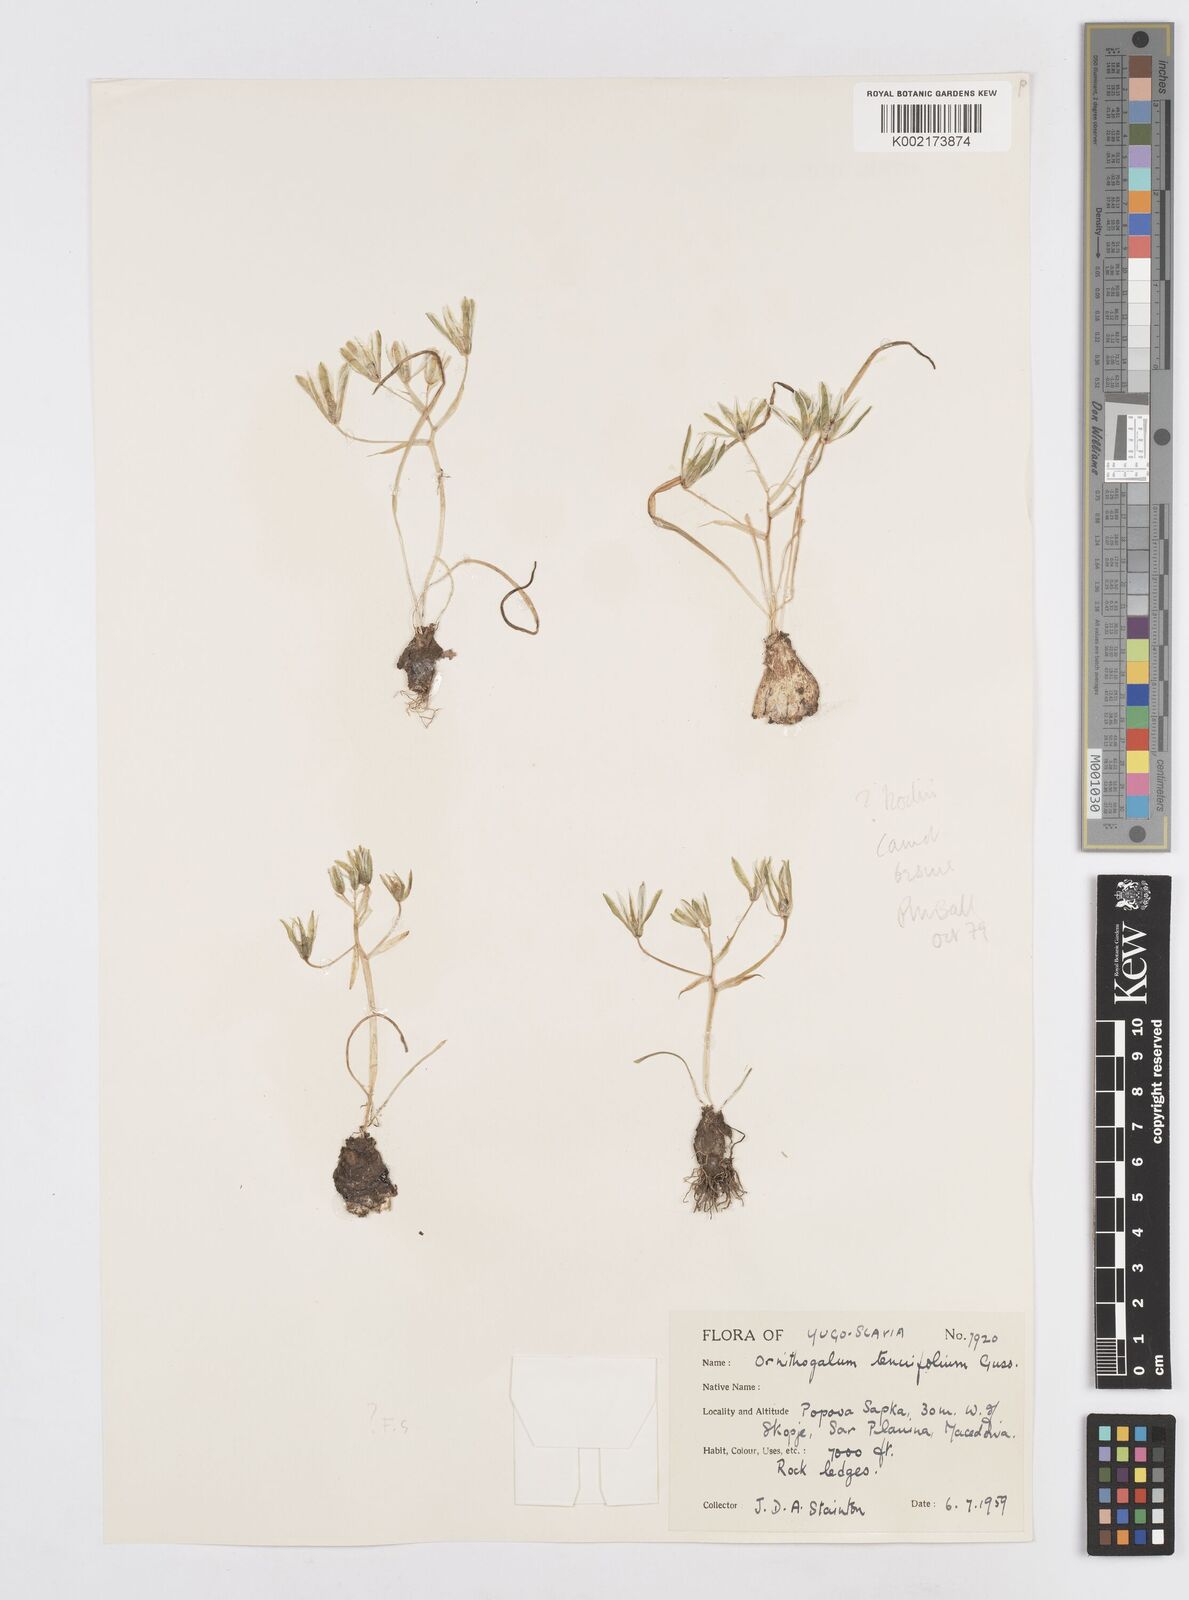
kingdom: Plantae
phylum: Tracheophyta
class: Liliopsida
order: Asparagales
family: Asparagaceae
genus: Ornithogalum
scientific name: Ornithogalum orthophyllum
